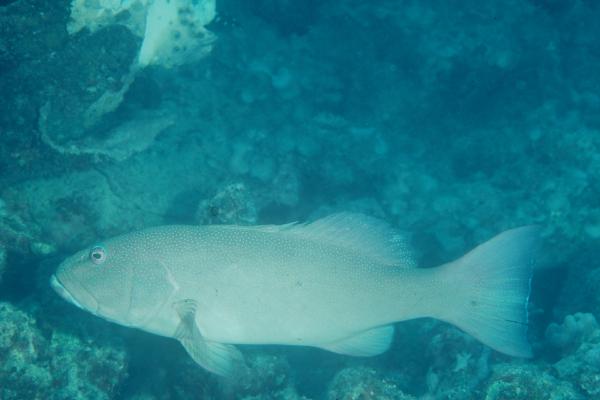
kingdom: Animalia
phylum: Chordata
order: Perciformes
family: Serranidae
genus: Plectropomus
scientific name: Plectropomus leopardus
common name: Coral trout
